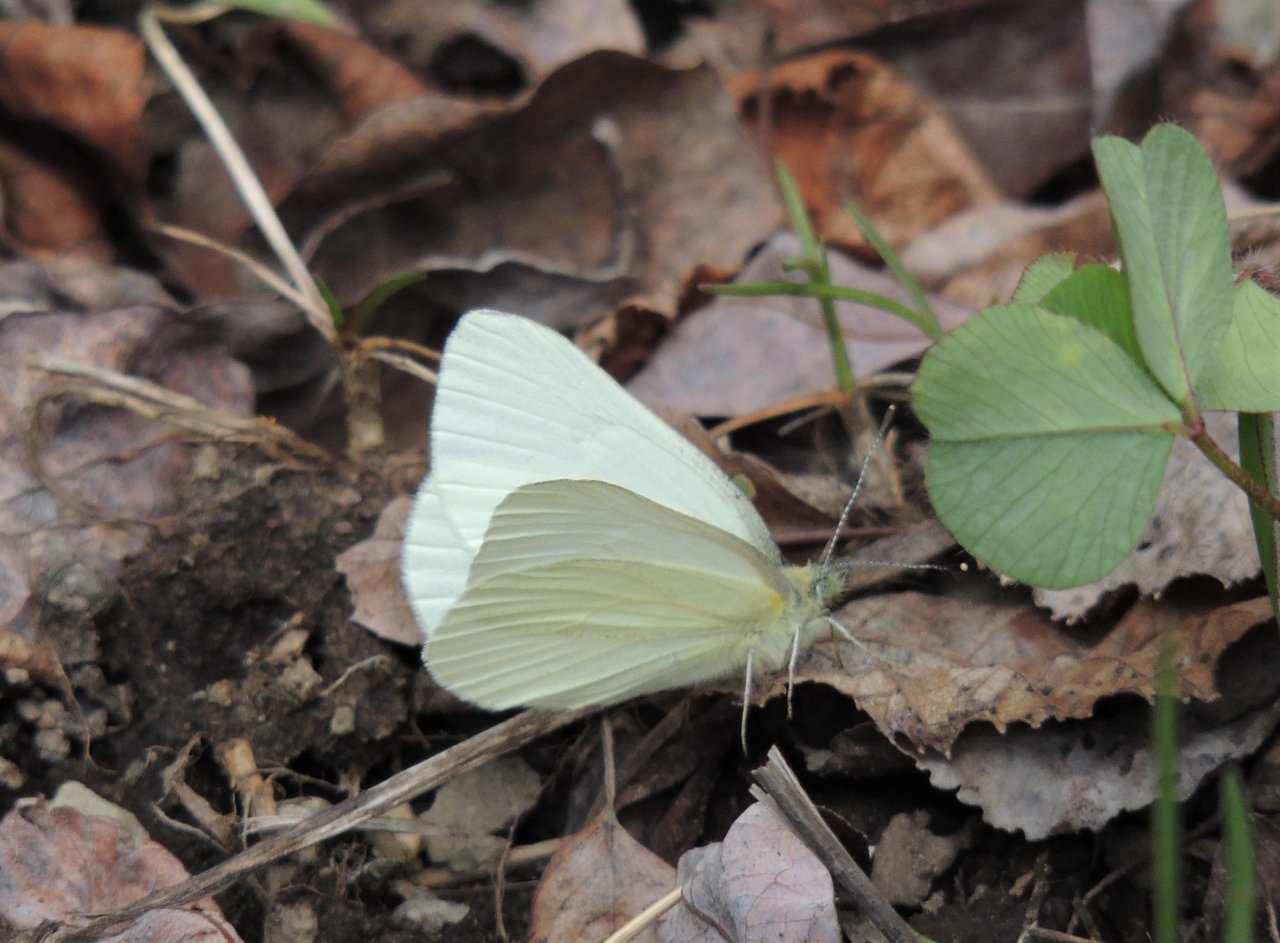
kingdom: Animalia
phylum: Arthropoda
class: Insecta
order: Lepidoptera
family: Pieridae
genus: Pieris
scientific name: Pieris marginalis
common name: Margined White
